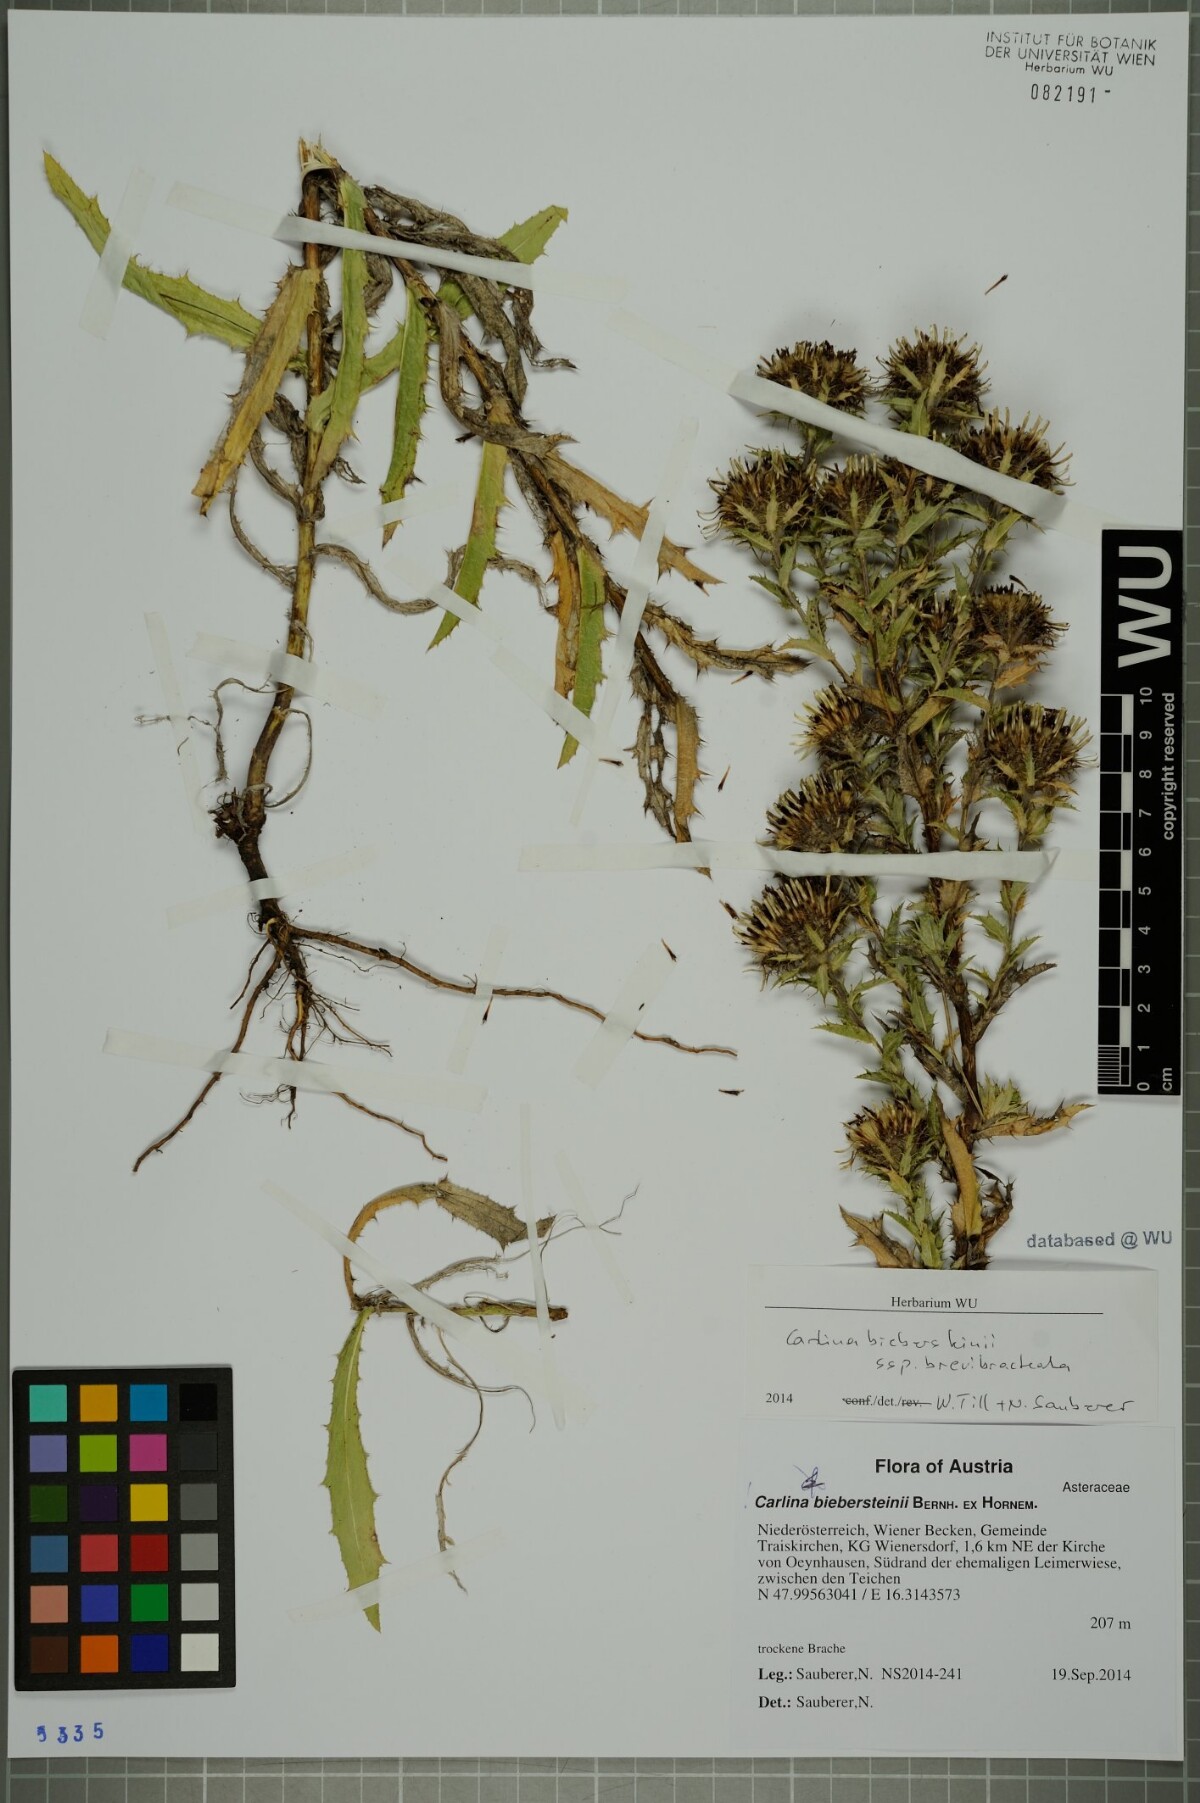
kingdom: Plantae
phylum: Tracheophyta
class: Magnoliopsida
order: Asterales
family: Asteraceae
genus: Carlina
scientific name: Carlina biebersteinii
